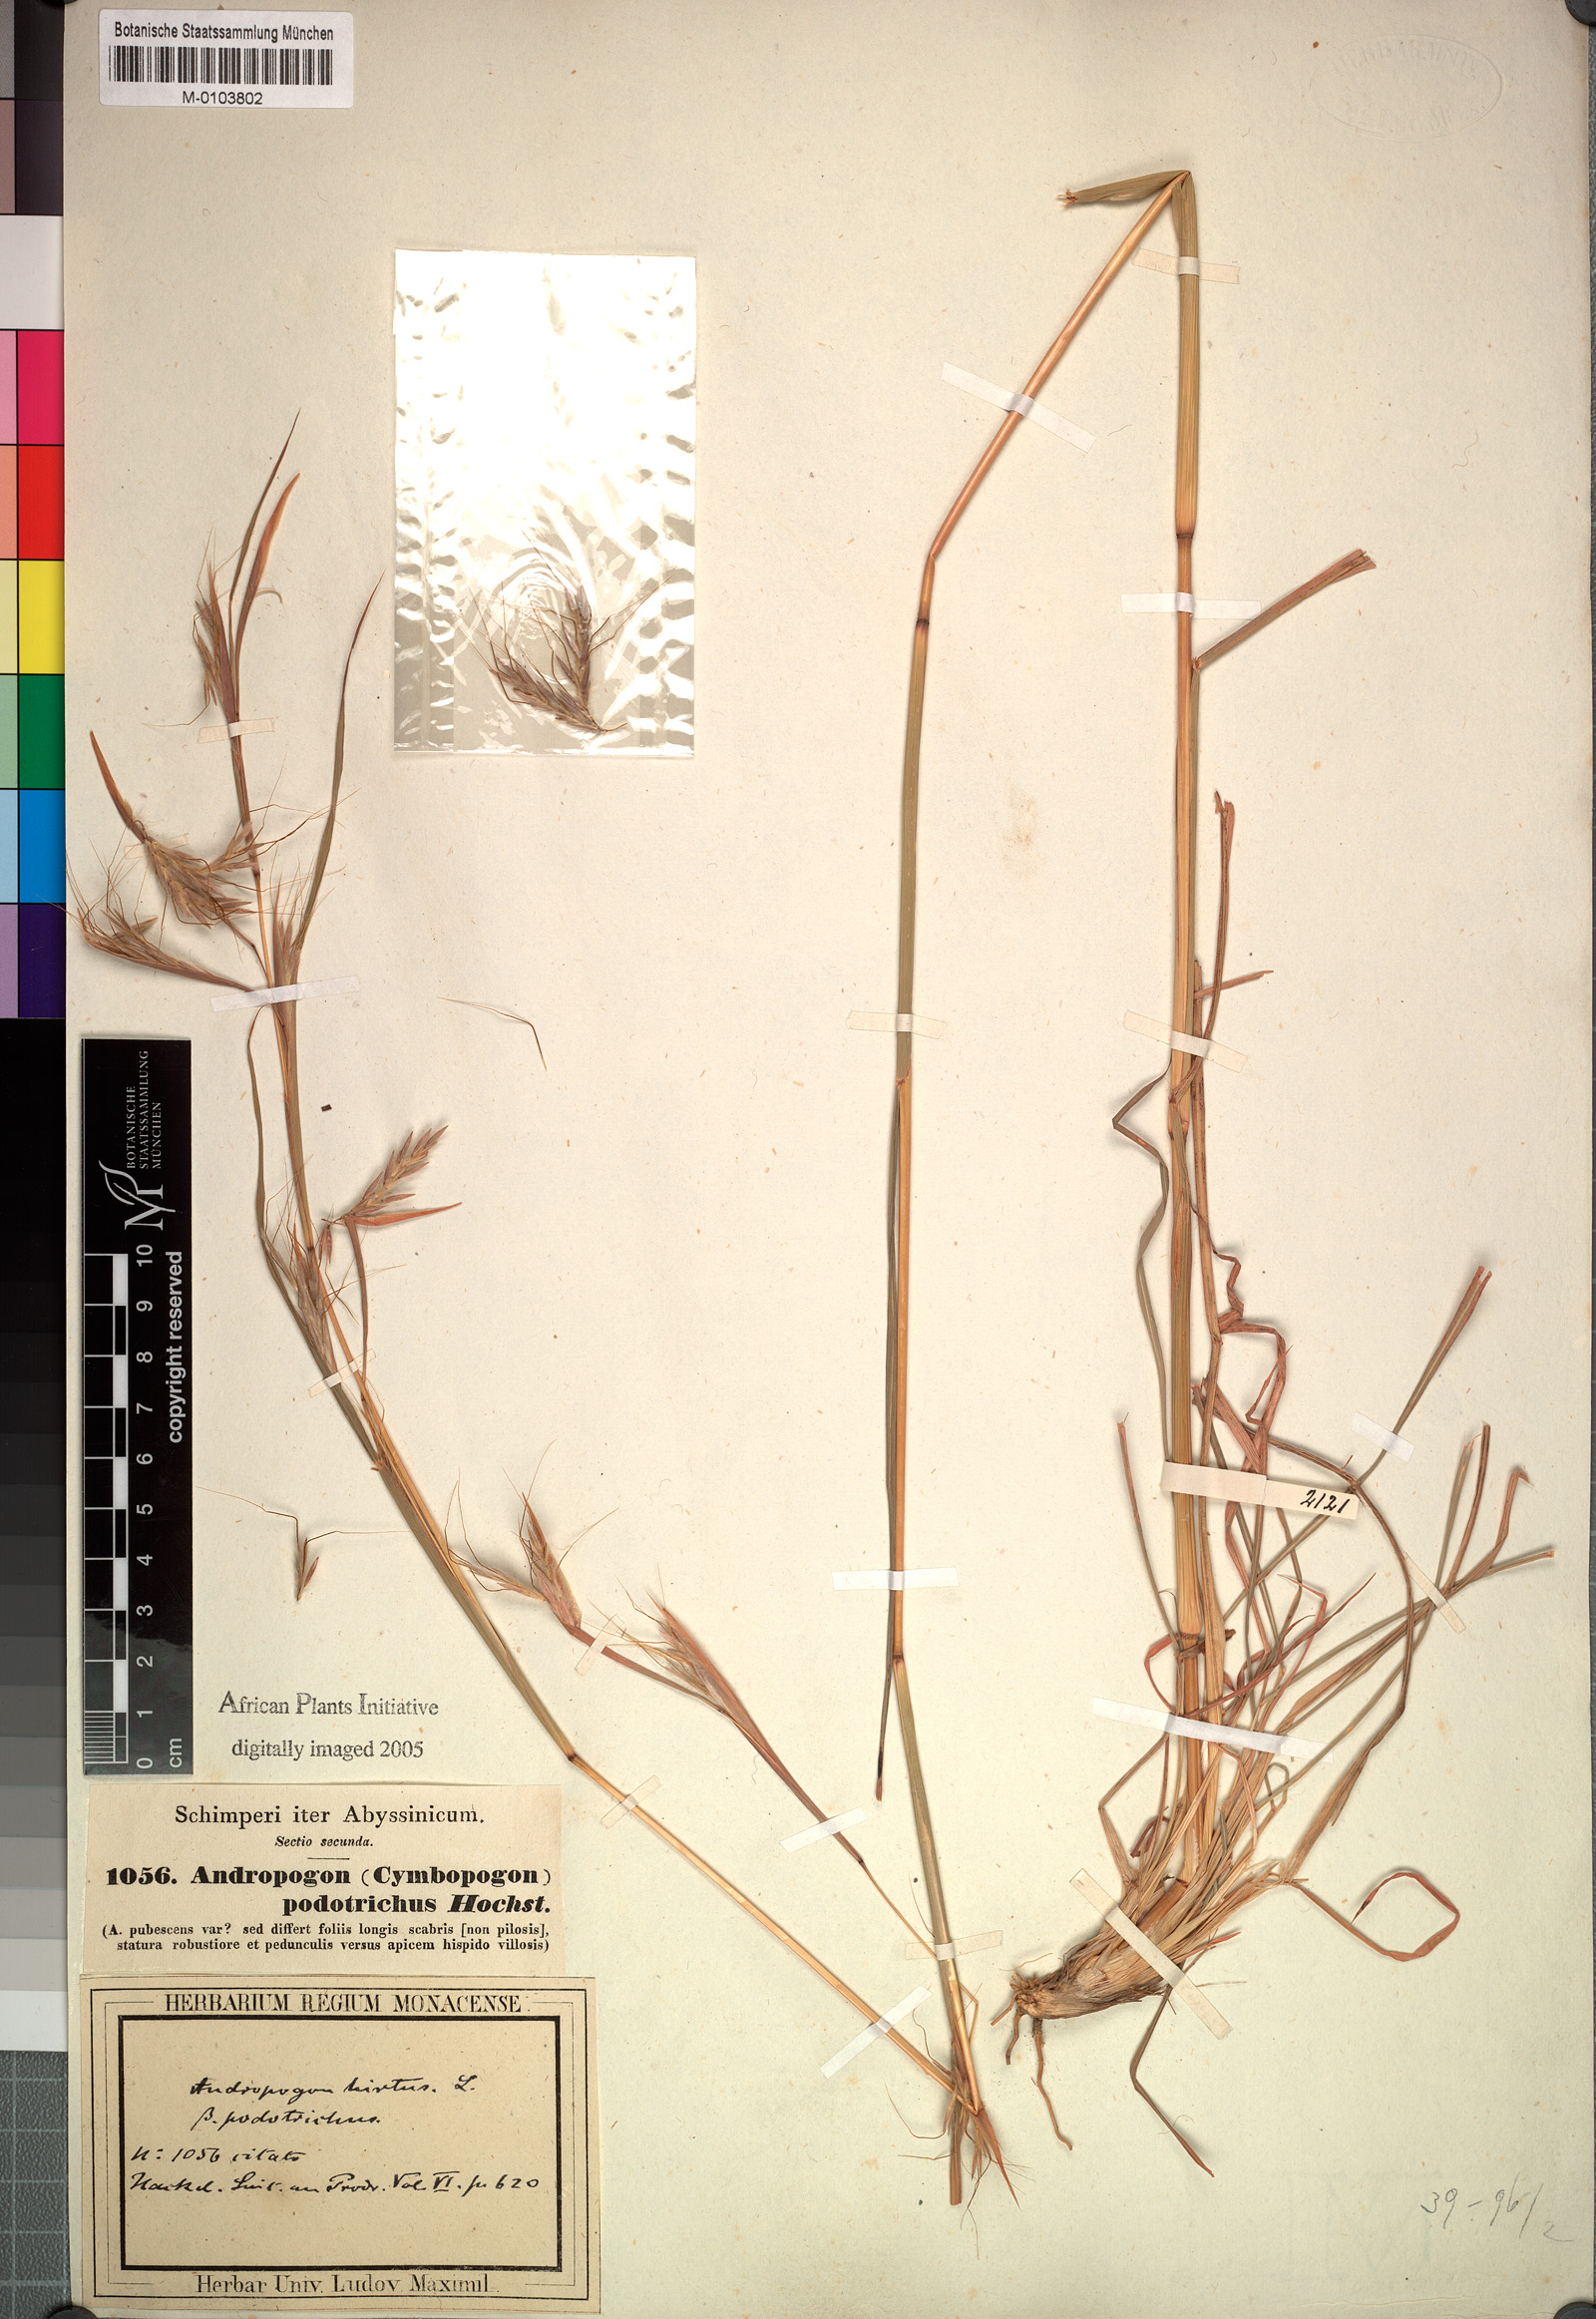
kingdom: Plantae
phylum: Tracheophyta
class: Liliopsida
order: Poales
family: Poaceae
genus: Hyparrhenia
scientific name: Hyparrhenia hirta
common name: Thatching grass
